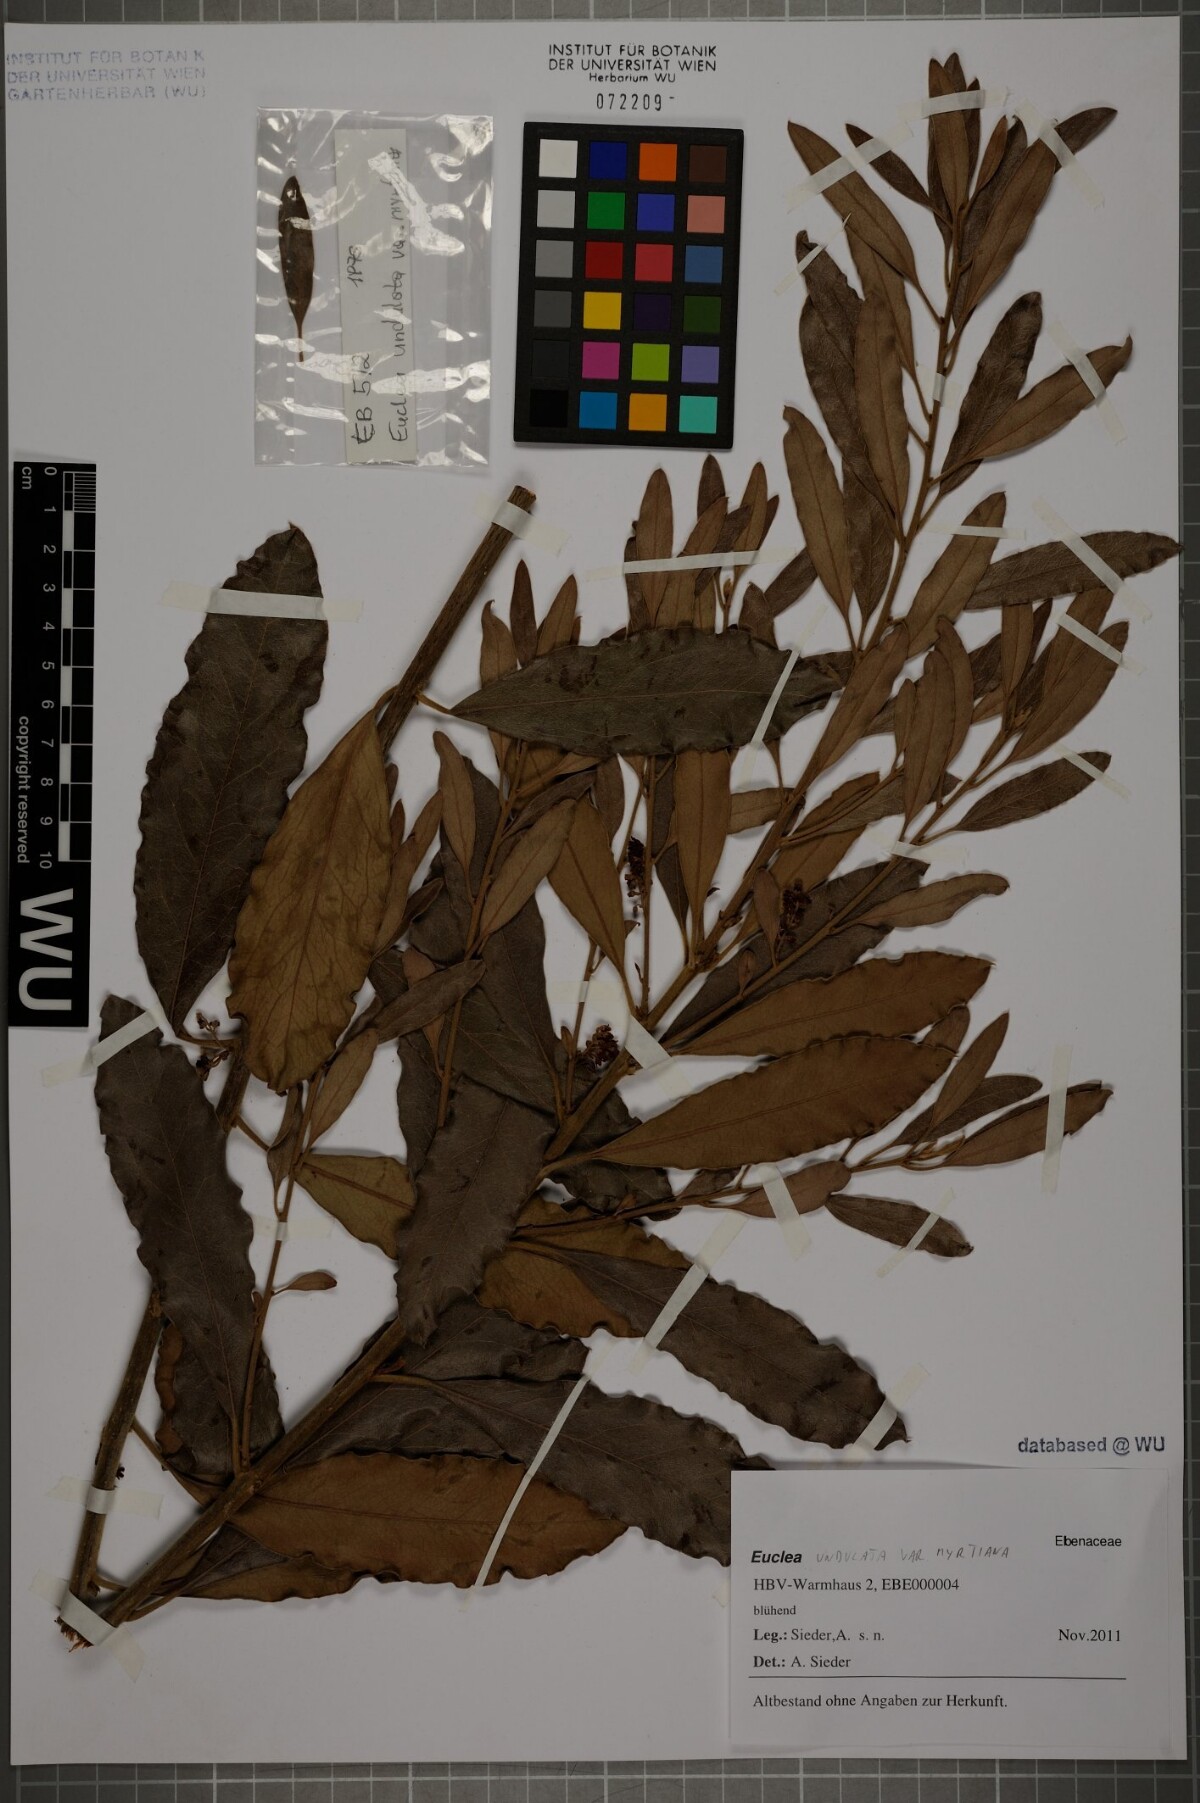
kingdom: Plantae
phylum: Tracheophyta
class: Magnoliopsida
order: Ericales
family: Ebenaceae
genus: Euclea
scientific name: Euclea undulata
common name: Small-leaved guarri
